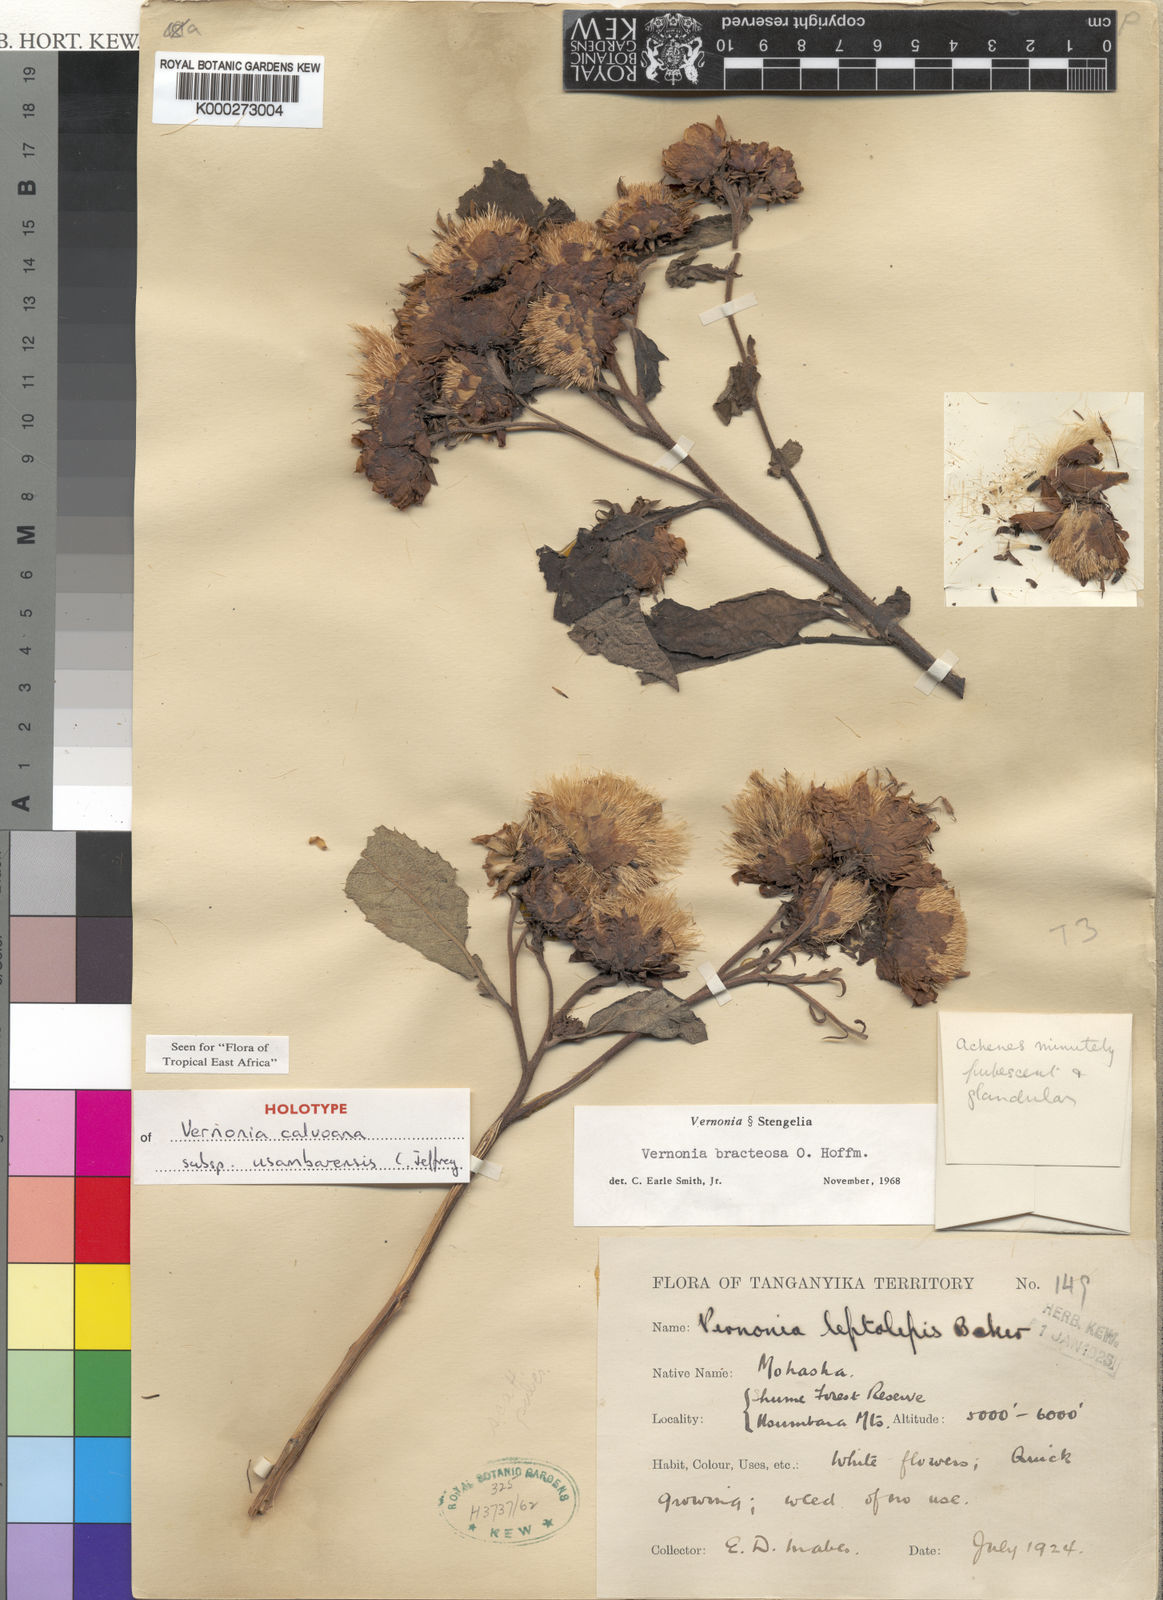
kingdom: Plantae
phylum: Tracheophyta
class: Magnoliopsida
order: Asterales
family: Asteraceae
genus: Baccharoides
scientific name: Baccharoides calvoana
